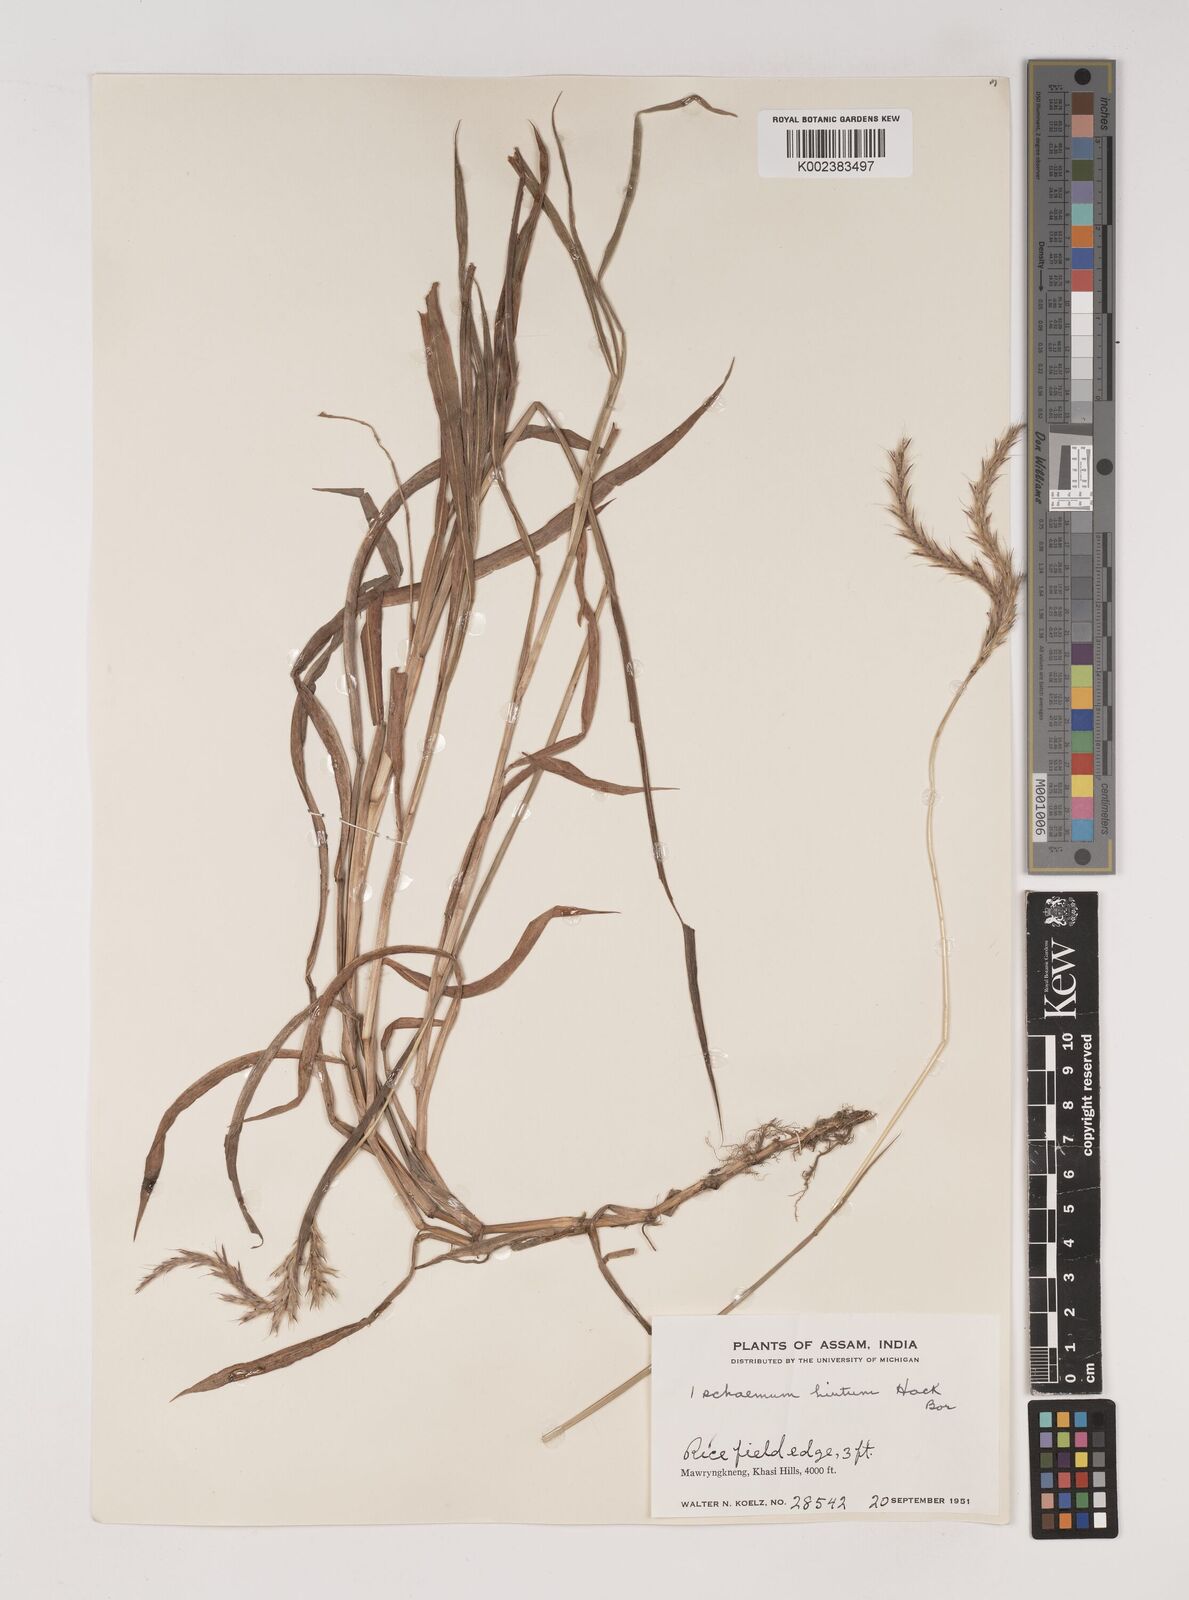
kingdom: Plantae
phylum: Tracheophyta
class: Liliopsida
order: Poales
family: Poaceae
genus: Ischaemum
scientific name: Ischaemum
